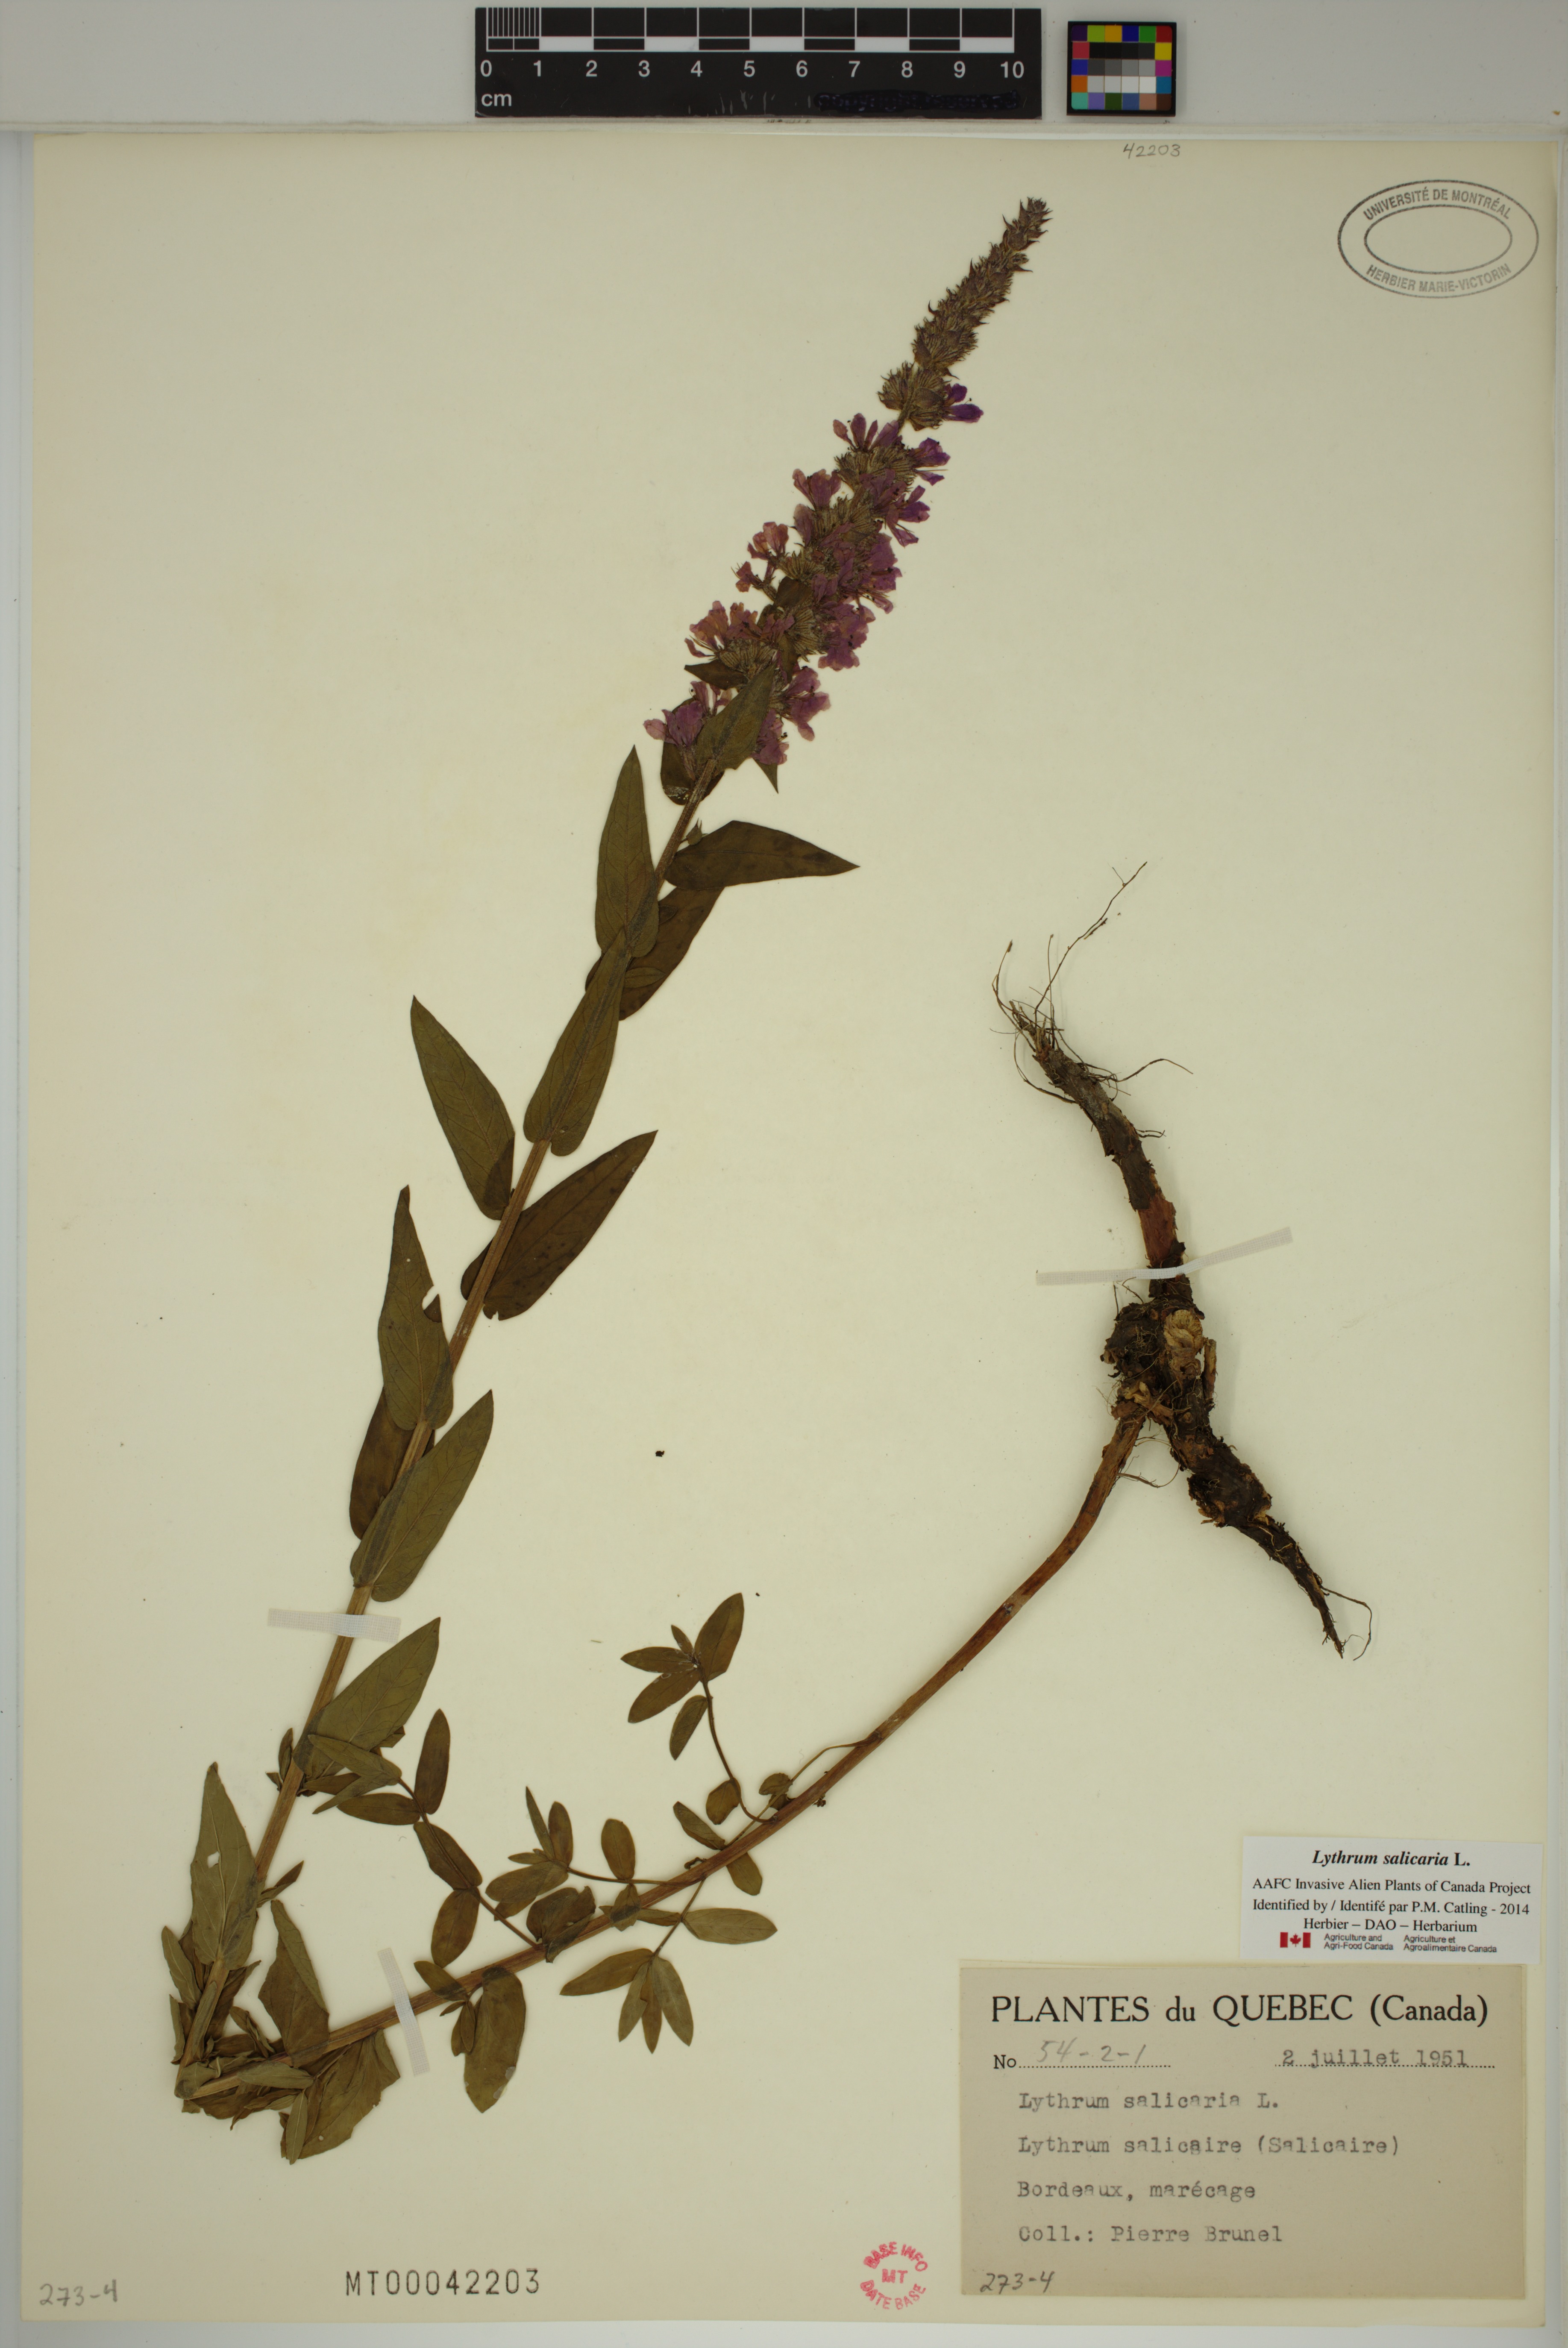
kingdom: Plantae
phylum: Tracheophyta
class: Magnoliopsida
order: Myrtales
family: Lythraceae
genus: Lythrum
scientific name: Lythrum salicaria
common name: Purple loosestrife
